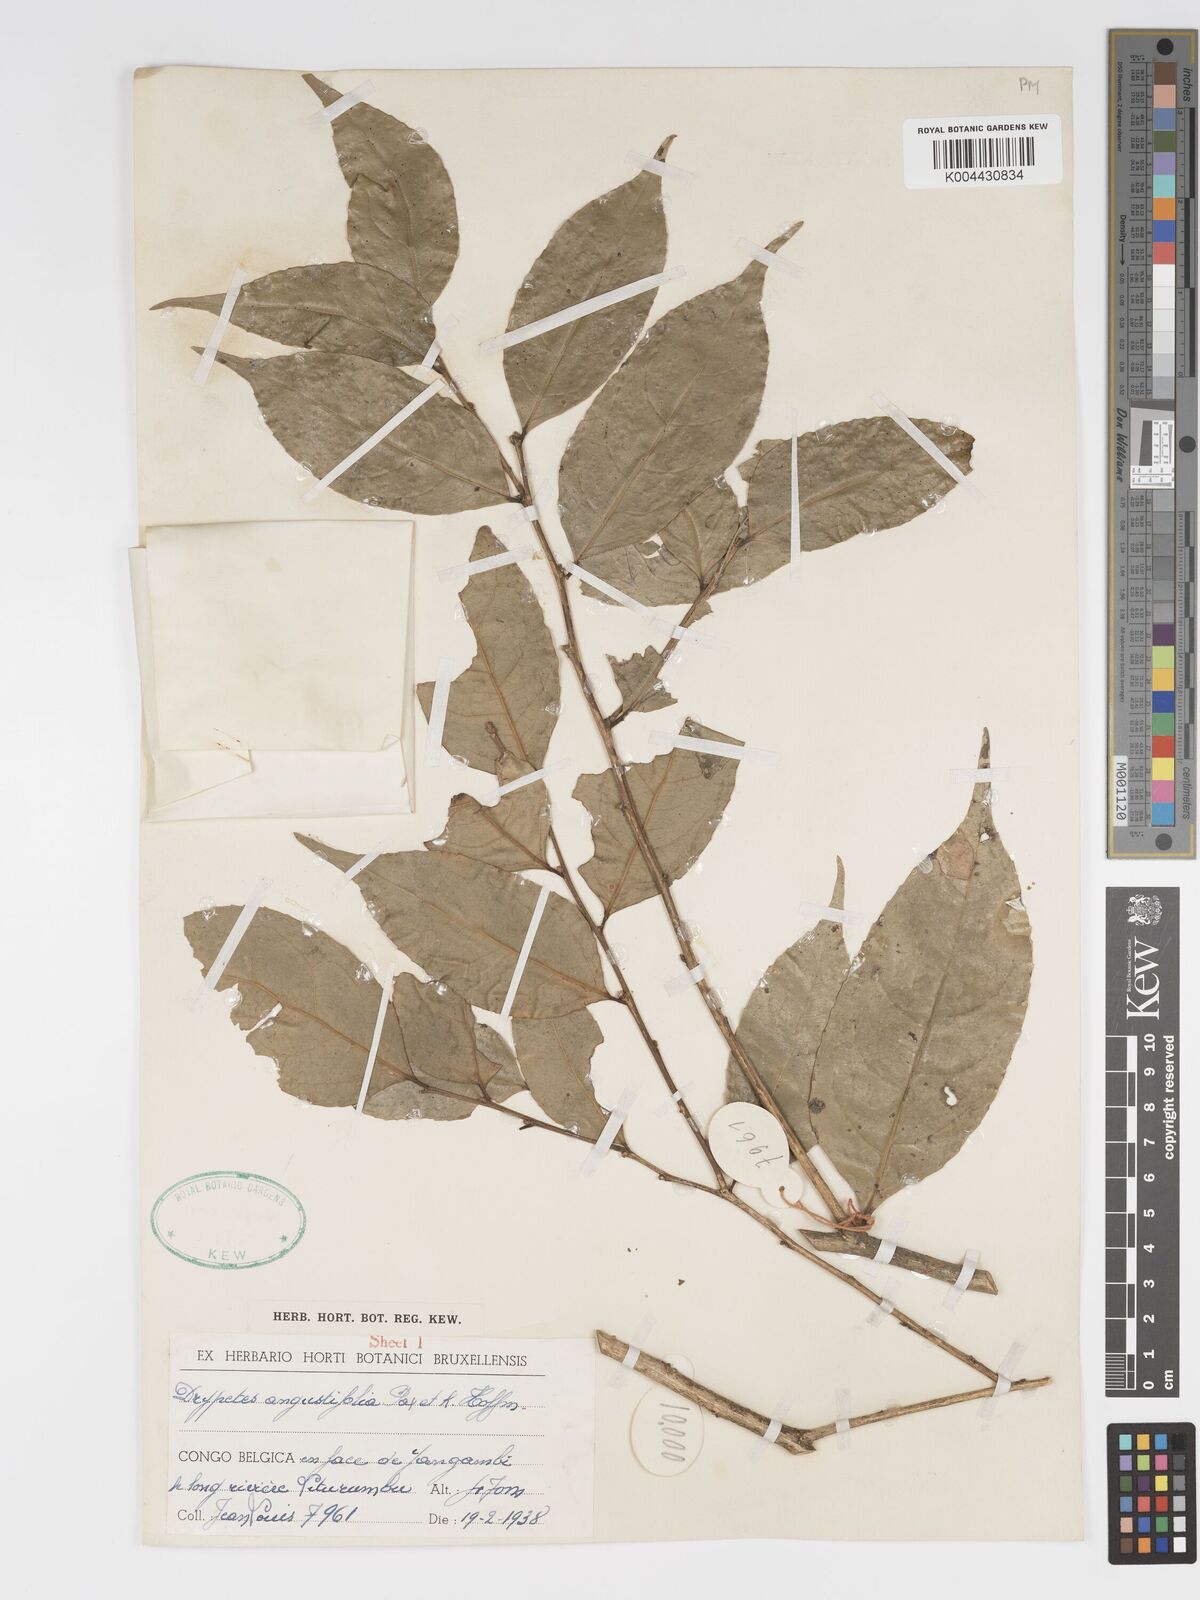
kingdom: Plantae
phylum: Tracheophyta
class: Magnoliopsida
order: Malpighiales
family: Putranjivaceae
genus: Drypetes
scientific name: Drypetes angustifolia
